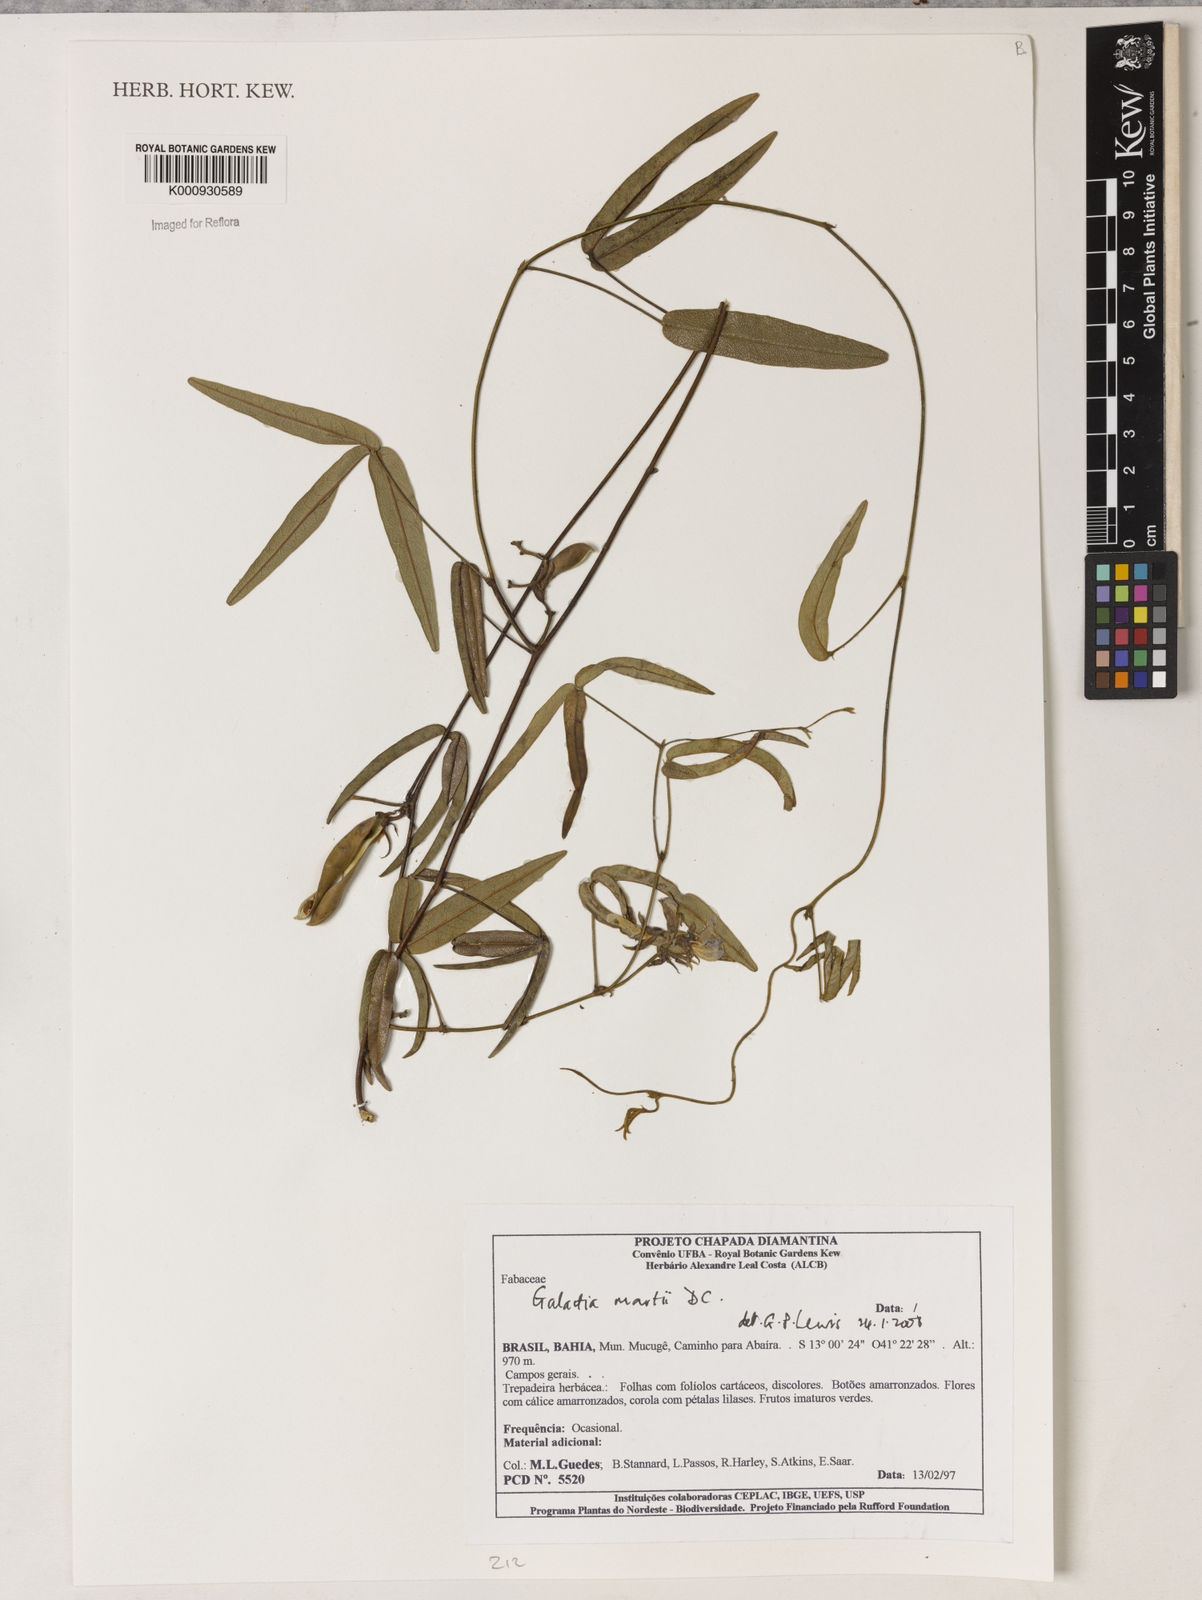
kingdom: Plantae
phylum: Tracheophyta
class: Magnoliopsida
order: Fabales
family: Fabaceae
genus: Betencourtia
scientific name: Betencourtia martii
